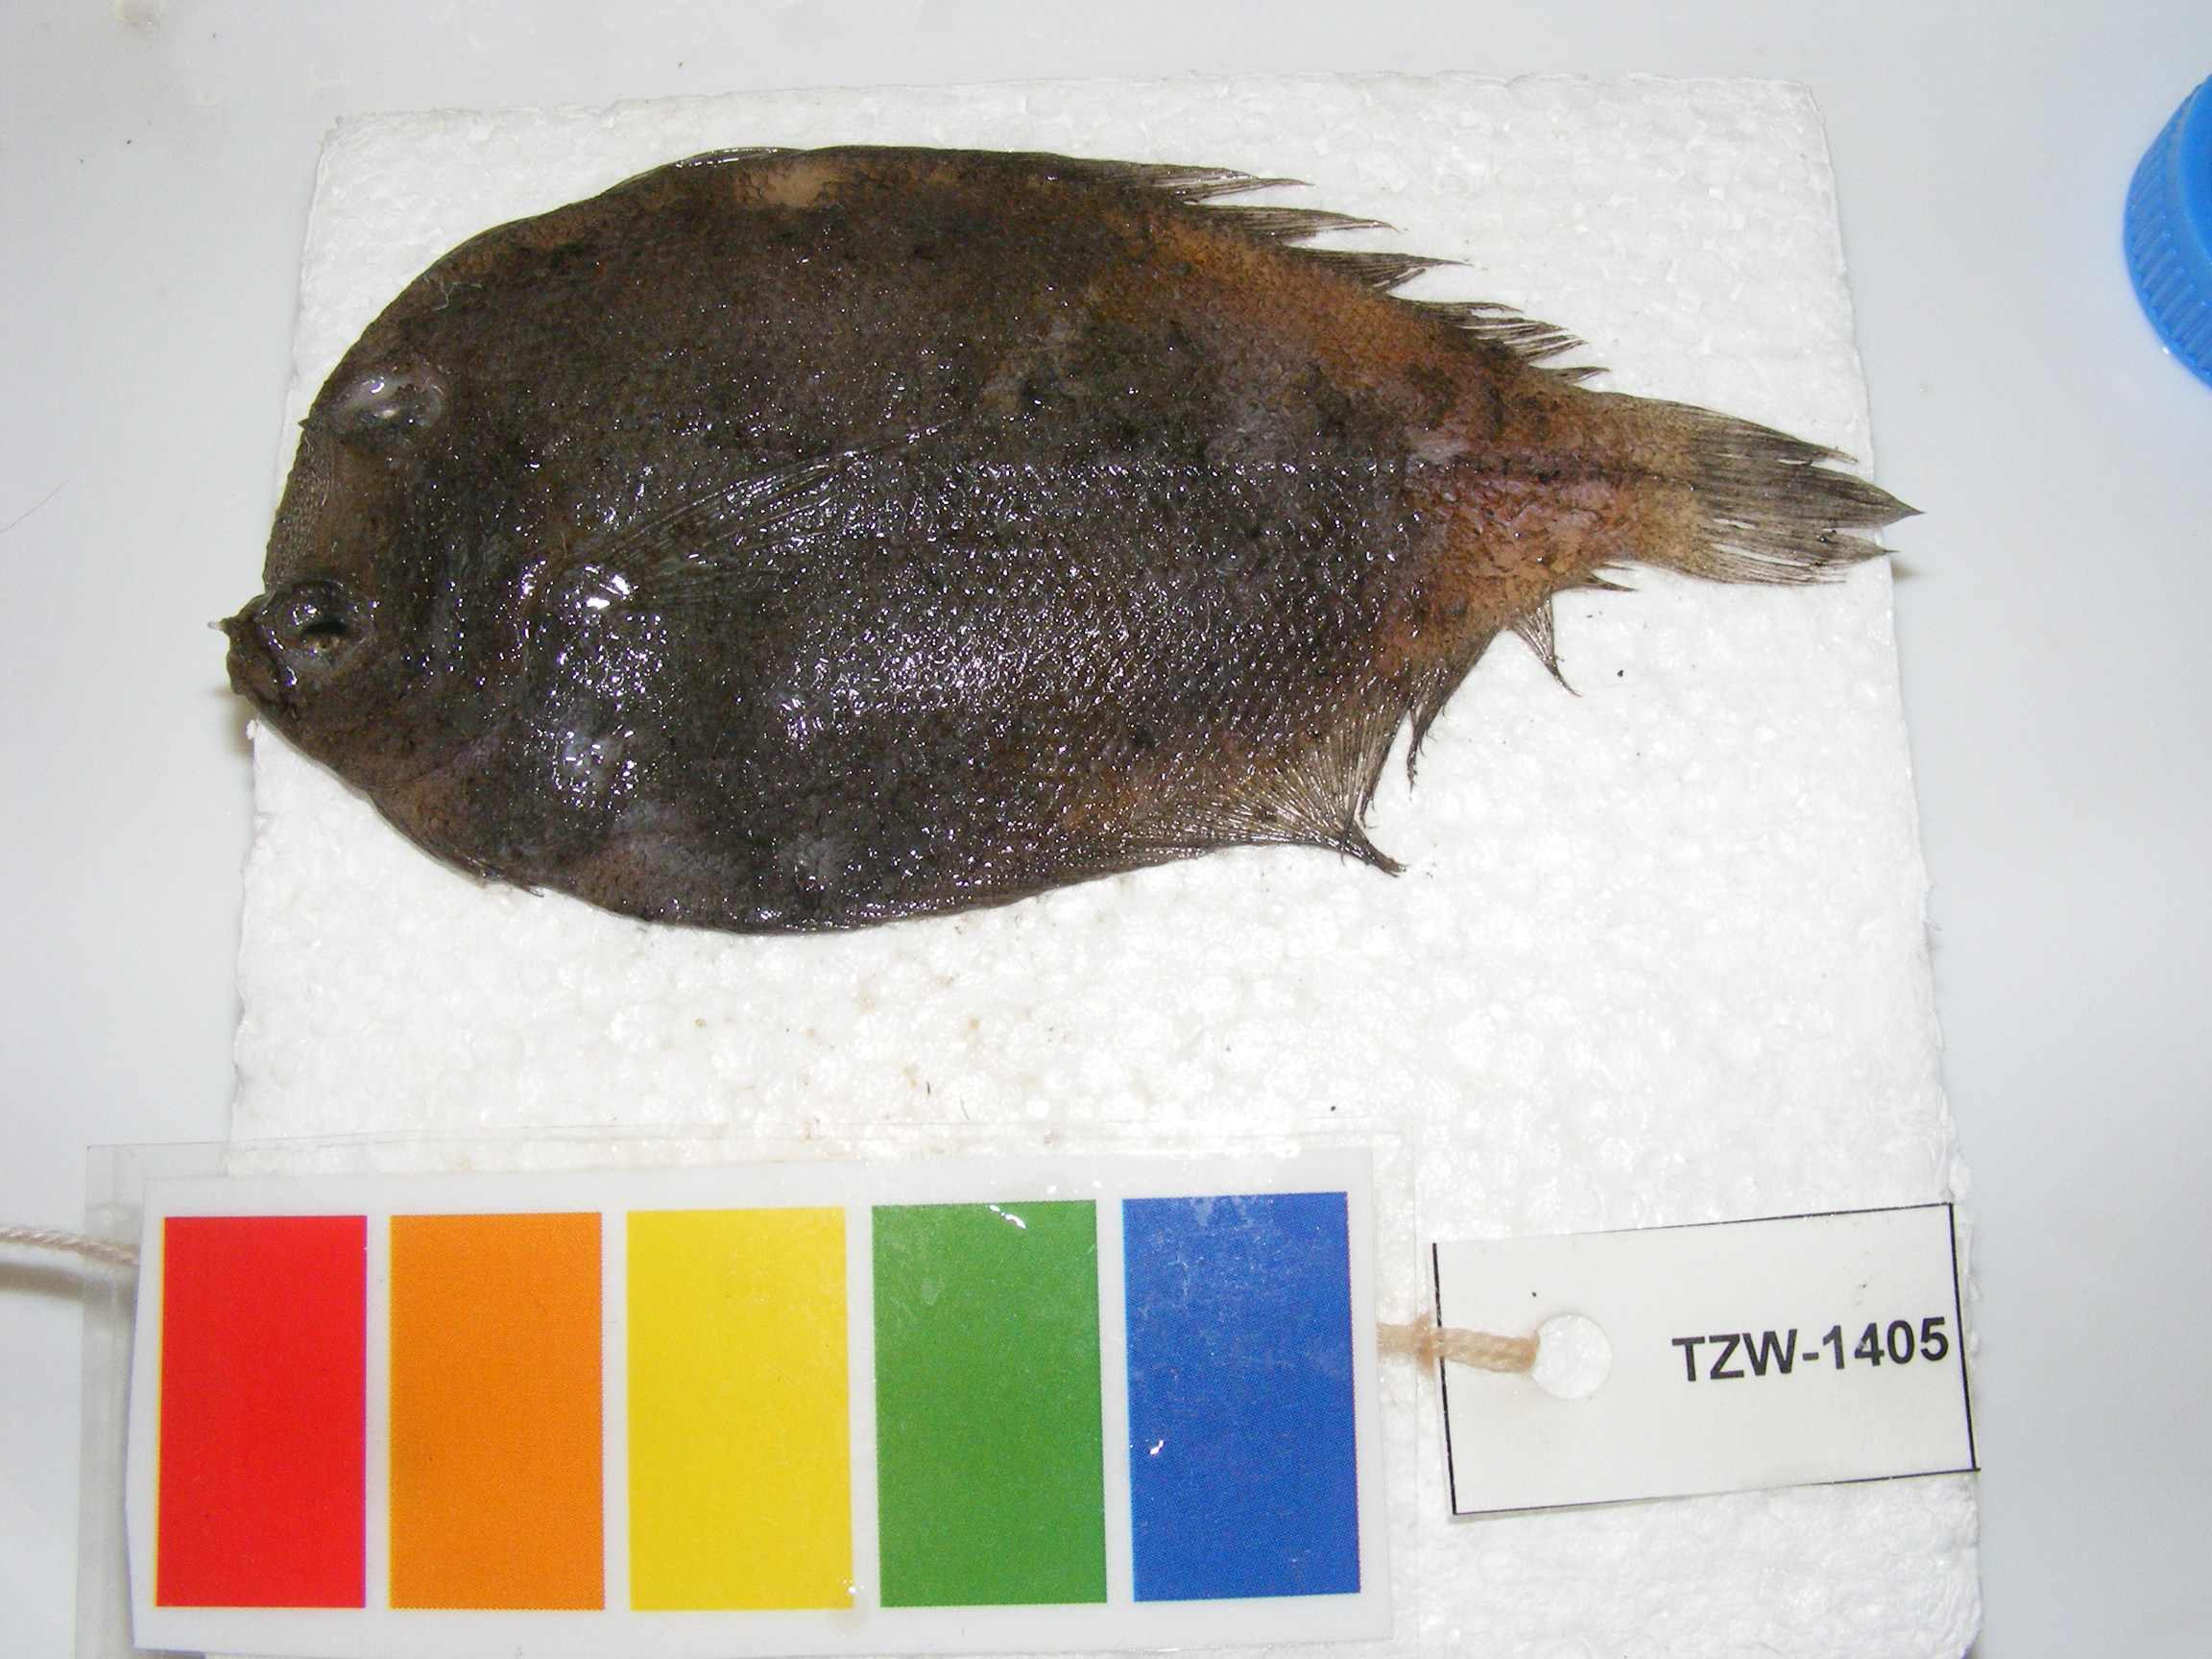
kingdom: Animalia
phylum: Chordata
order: Pleuronectiformes
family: Bothidae
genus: Crossorhombus
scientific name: Crossorhombus valderostratus
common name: Broadbrow flounder
